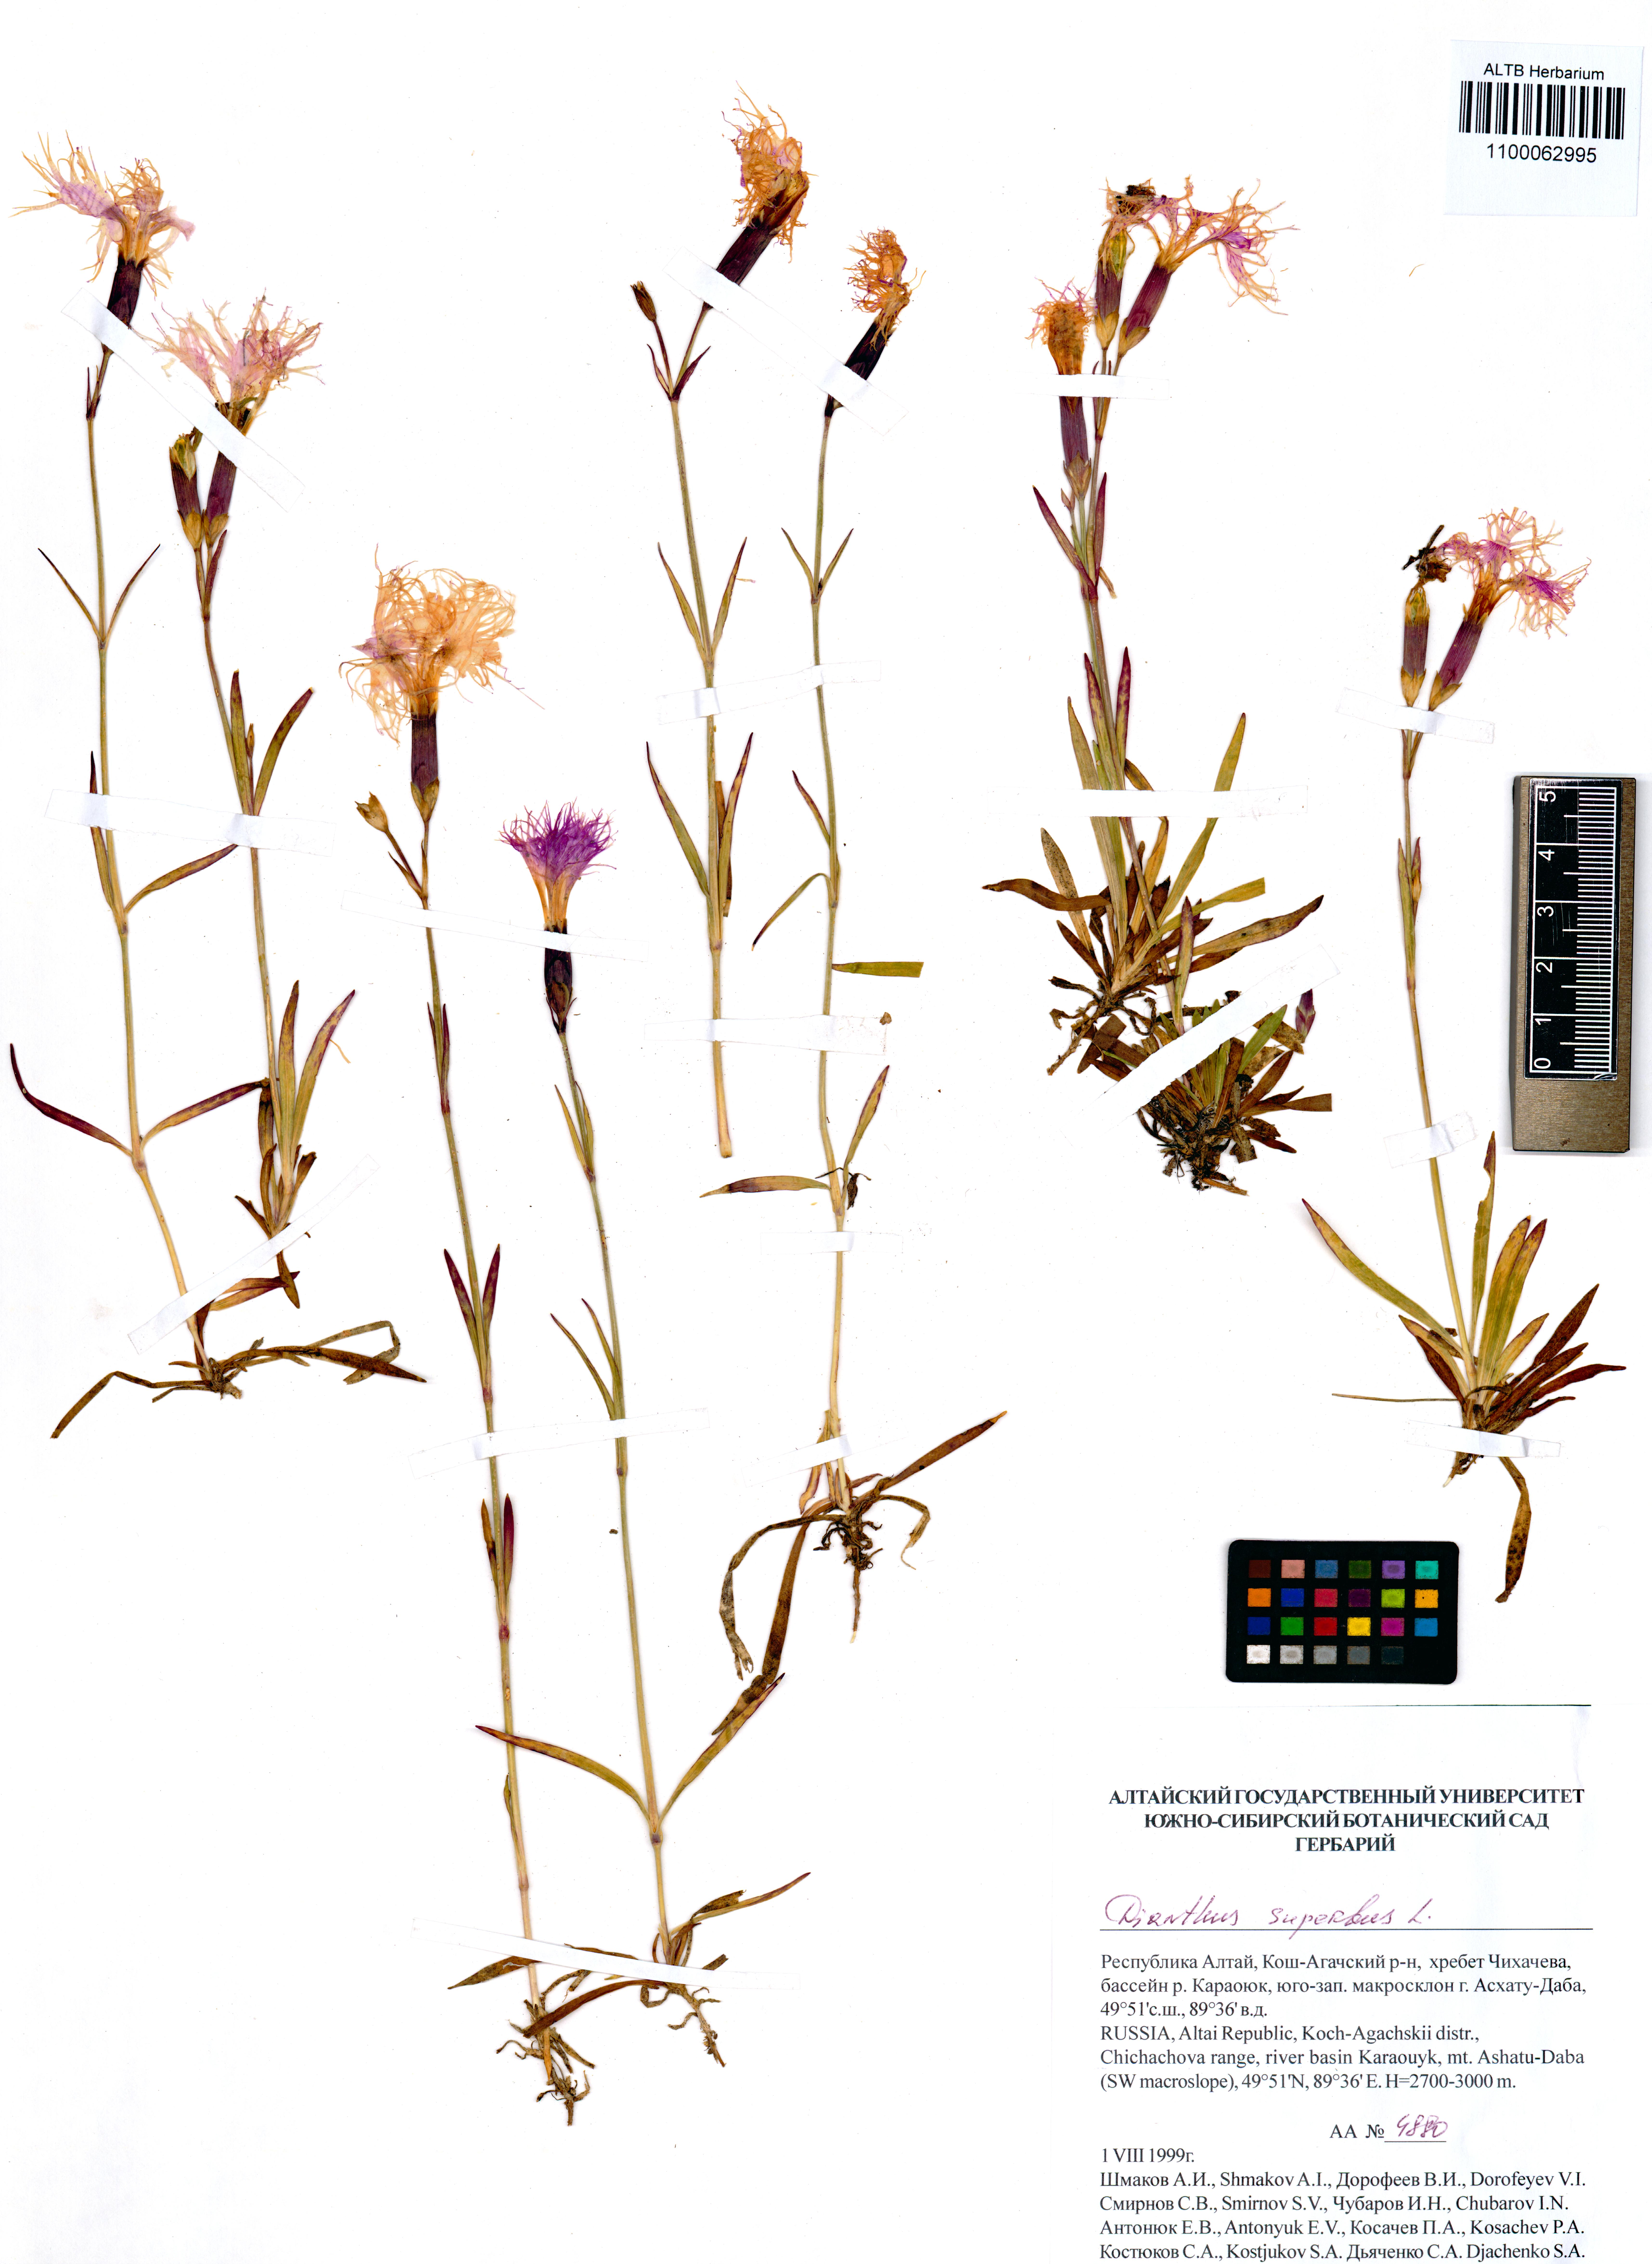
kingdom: Plantae
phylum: Tracheophyta
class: Magnoliopsida
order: Caryophyllales
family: Caryophyllaceae
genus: Dianthus
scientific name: Dianthus superbus
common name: Fringed pink
